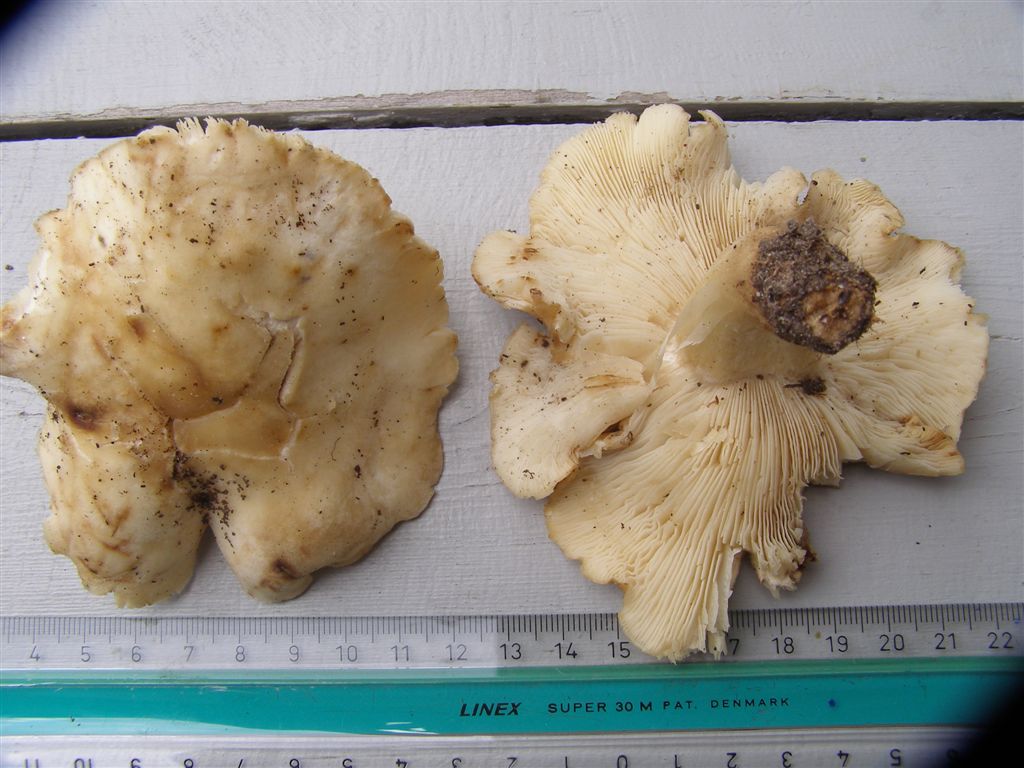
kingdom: Fungi
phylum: Basidiomycota
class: Agaricomycetes
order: Agaricales
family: Lyophyllaceae
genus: Calocybe
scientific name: Calocybe gambosa
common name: vårmusseron
